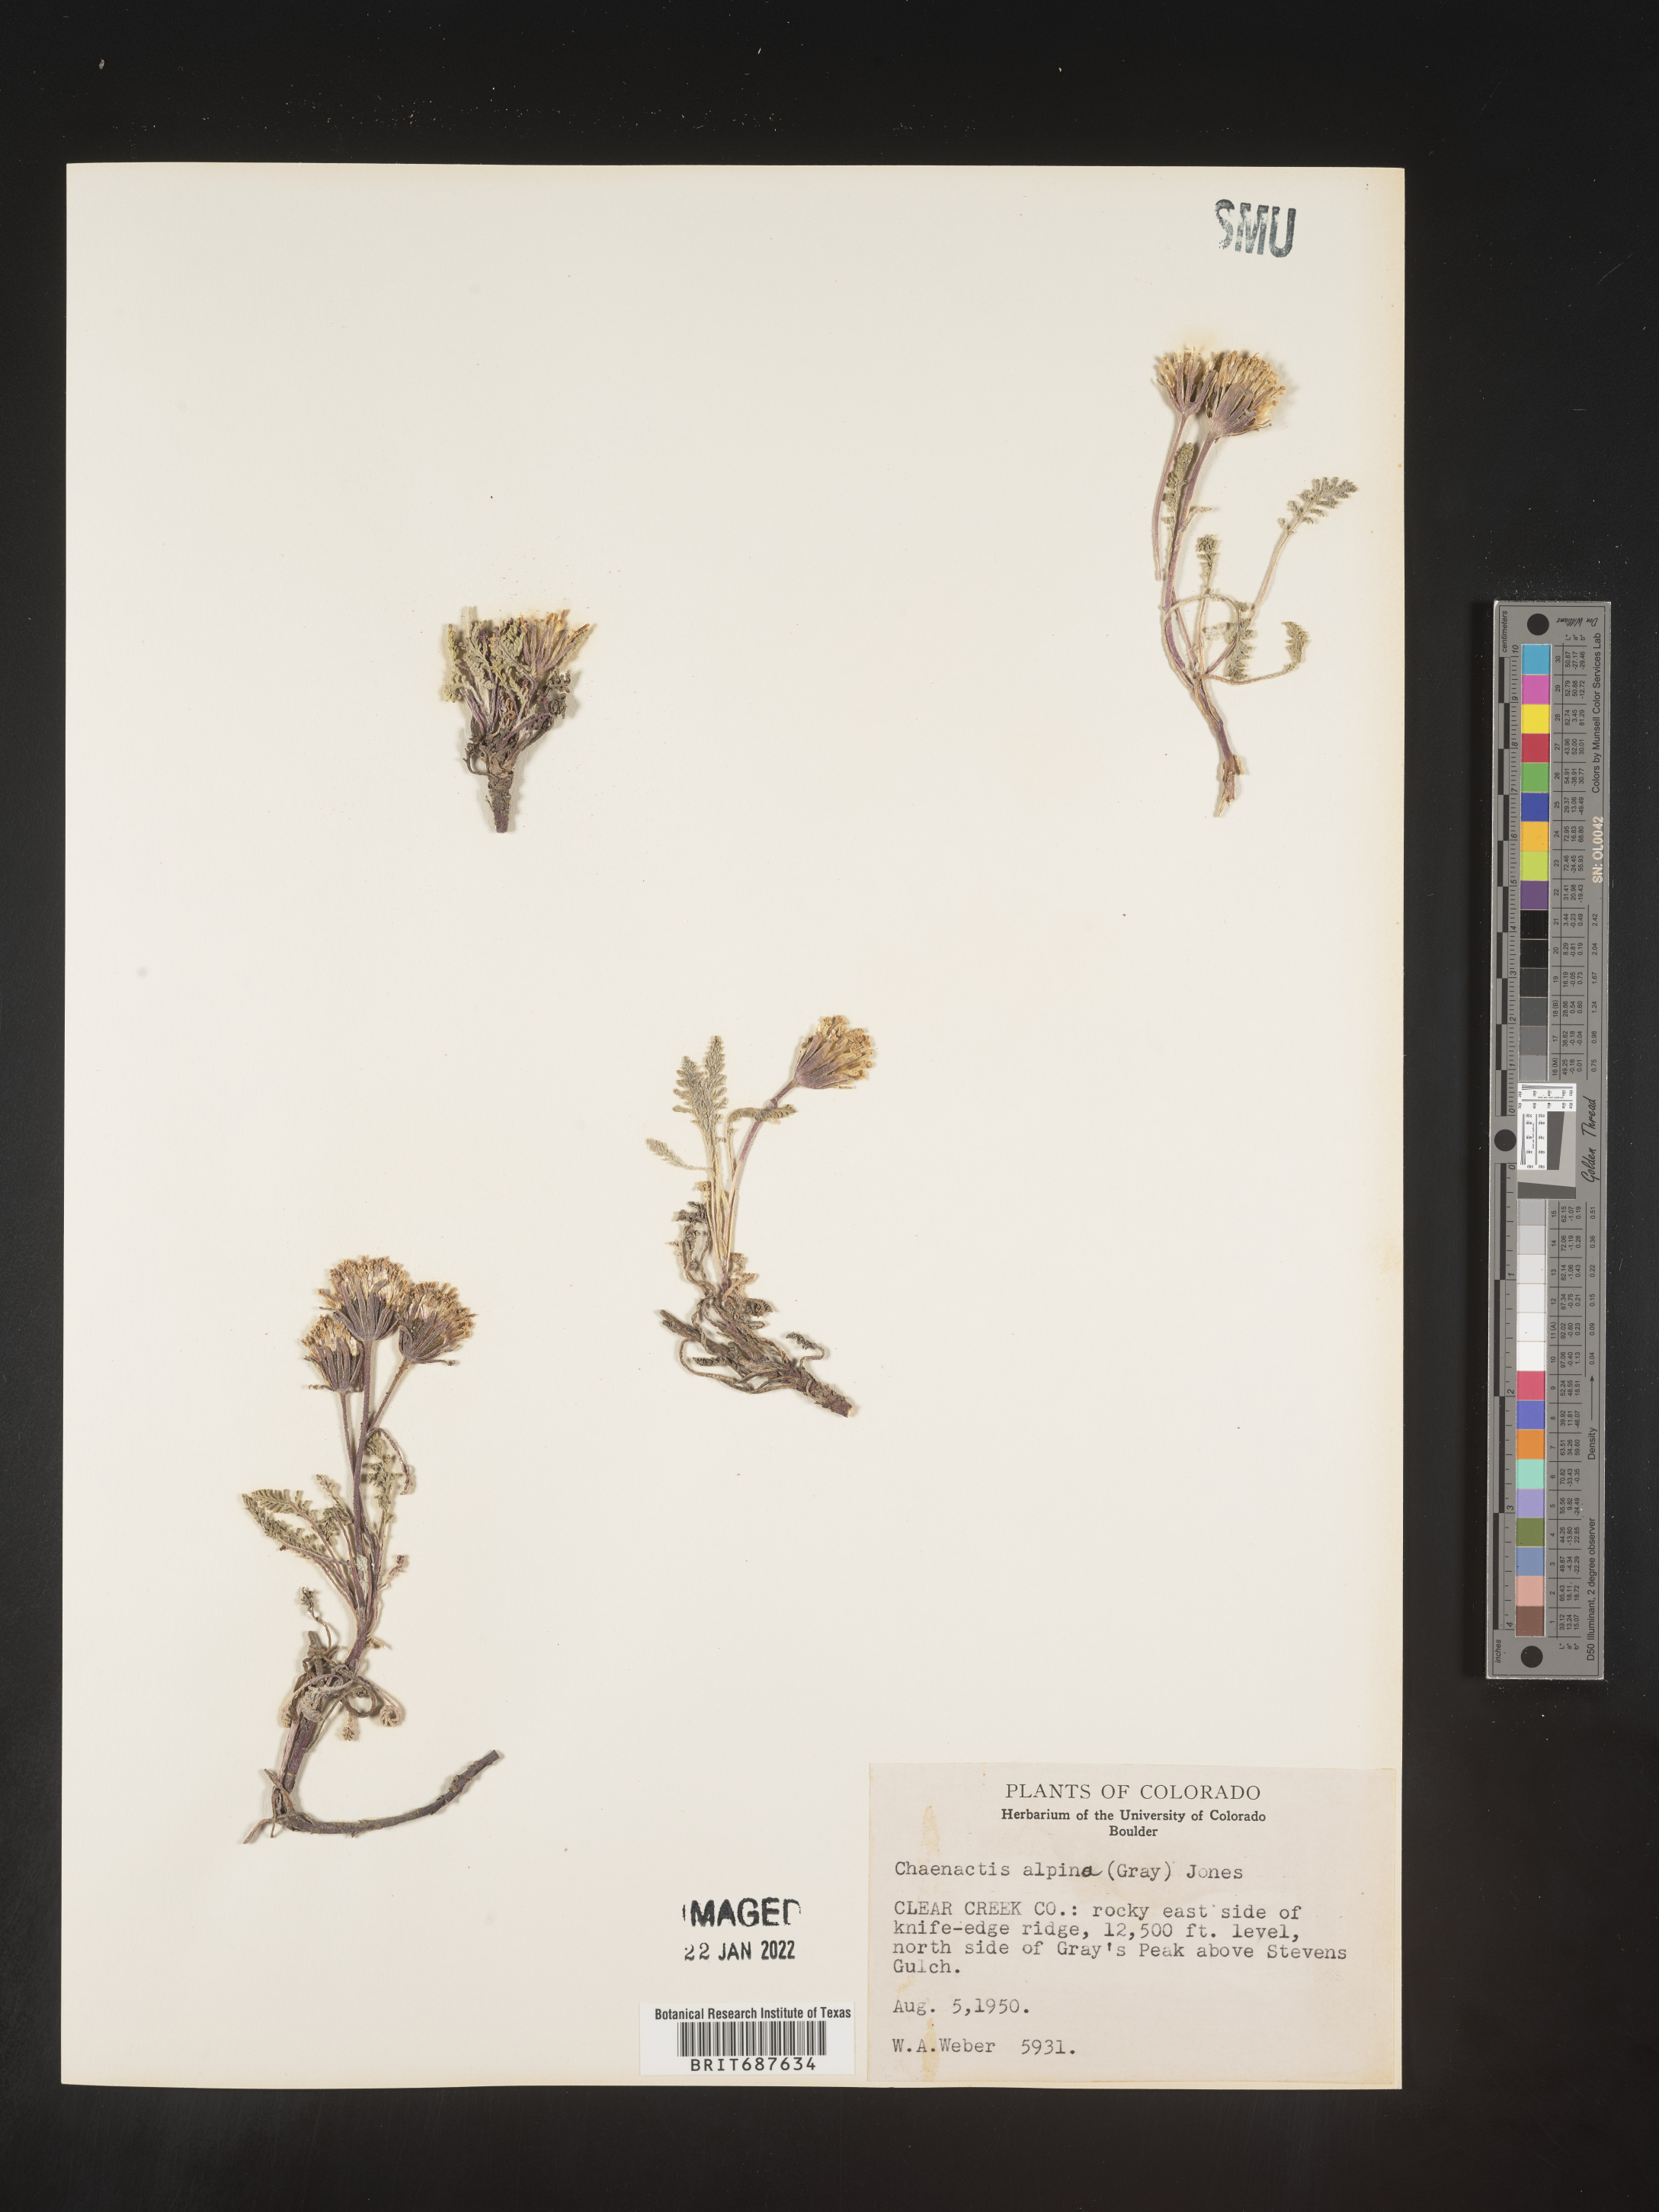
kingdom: Plantae
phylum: Tracheophyta
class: Magnoliopsida
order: Asterales
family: Asteraceae
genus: Chaenactis
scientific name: Chaenactis
